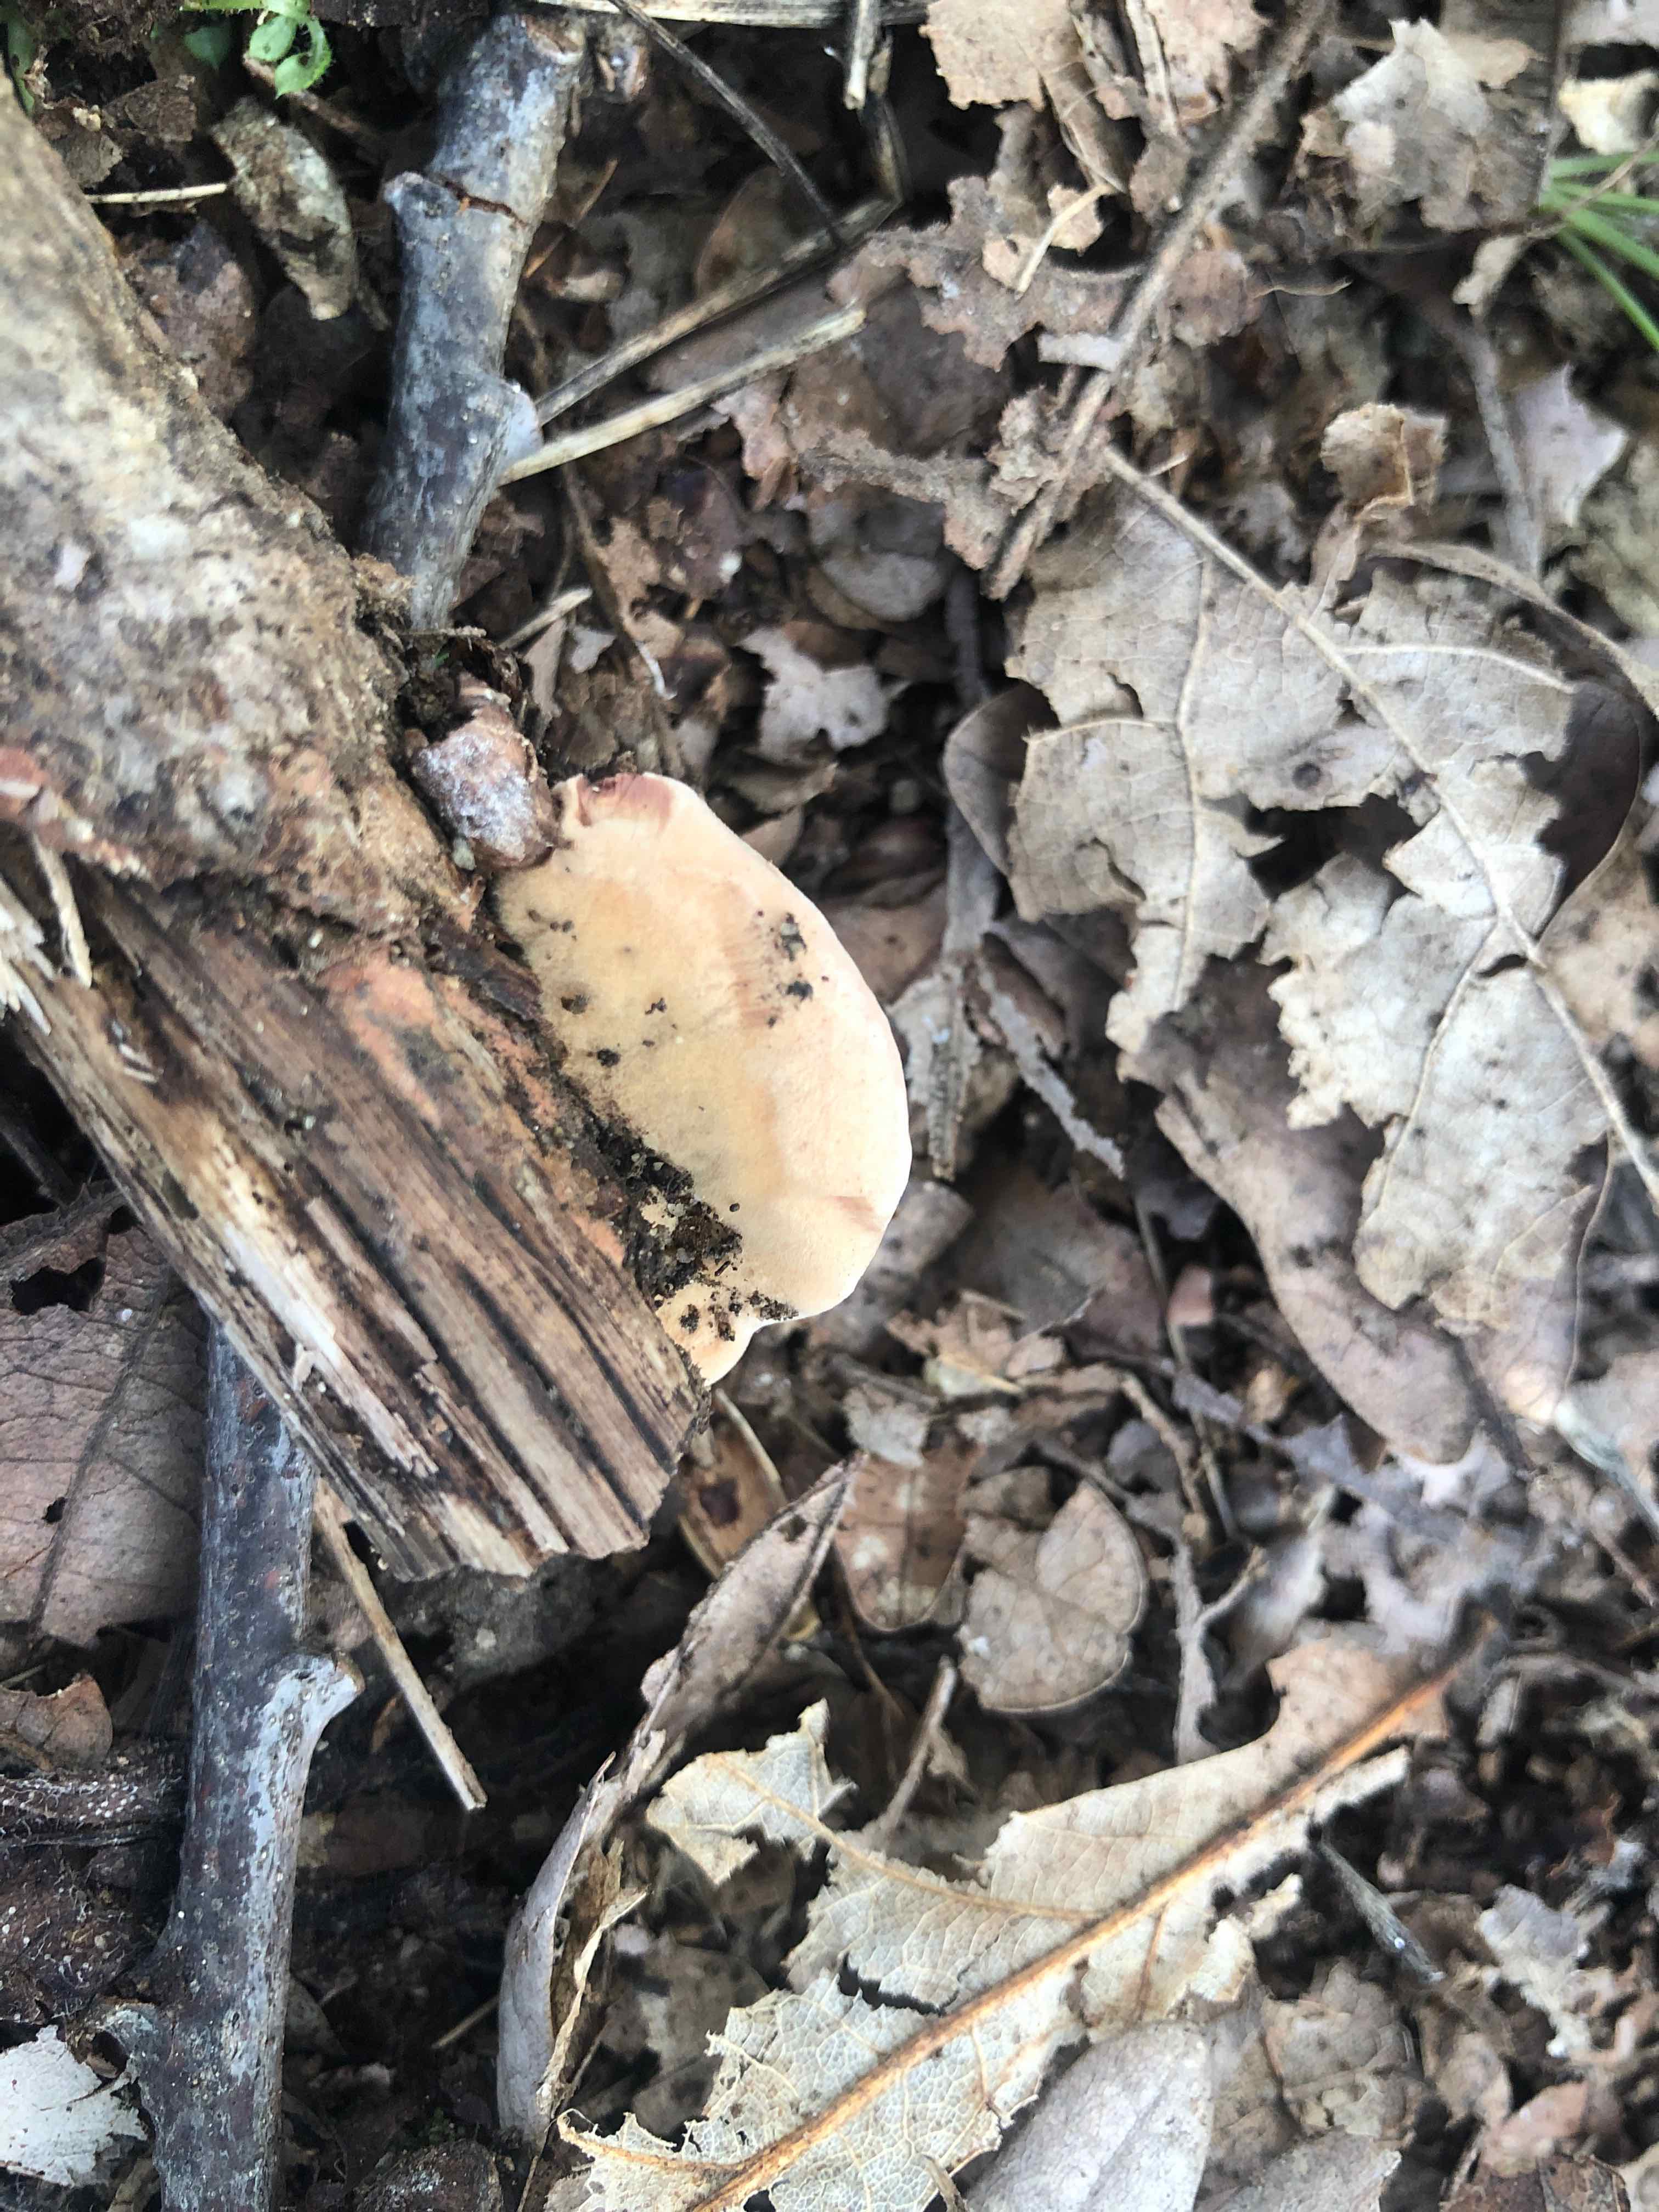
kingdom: Fungi
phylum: Basidiomycota
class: Agaricomycetes
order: Polyporales
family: Phanerochaetaceae
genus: Hapalopilus
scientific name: Hapalopilus rutilans
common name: rødlig okkerporesvamp
